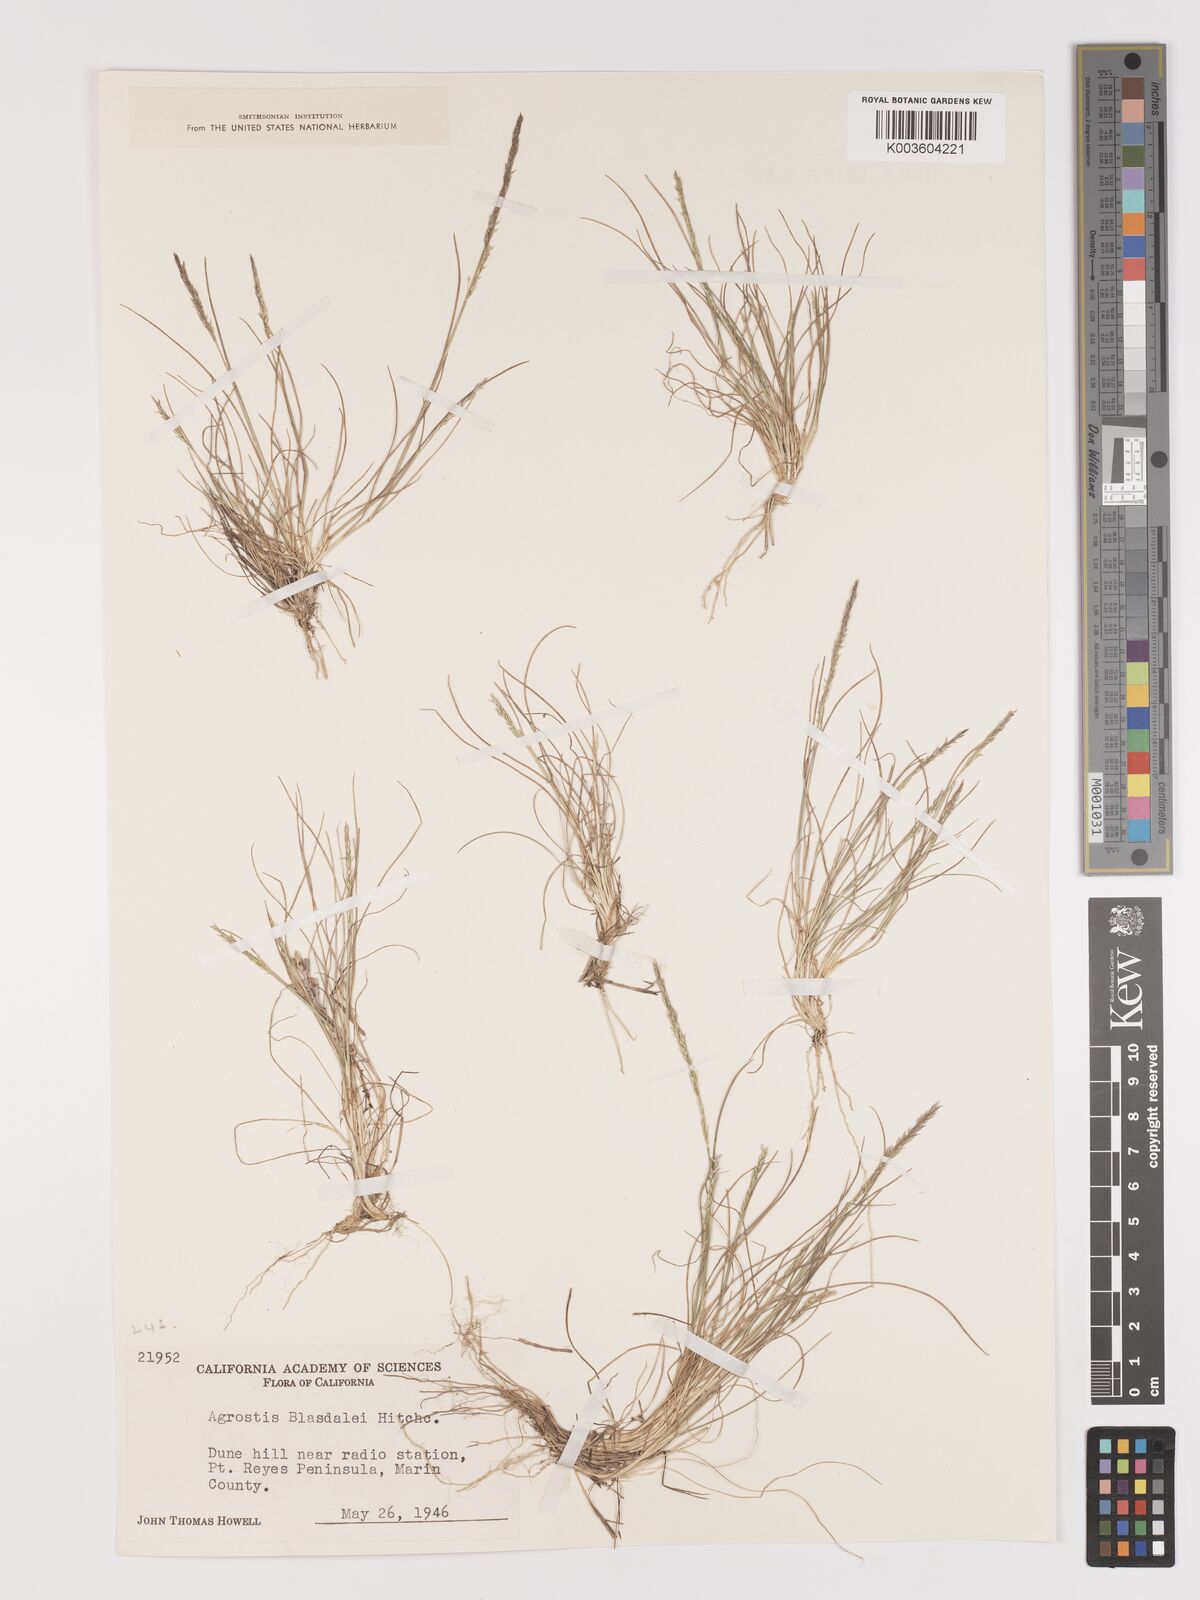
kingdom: Plantae
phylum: Tracheophyta
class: Liliopsida
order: Poales
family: Poaceae
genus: Agrostis
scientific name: Agrostis blasdalei
